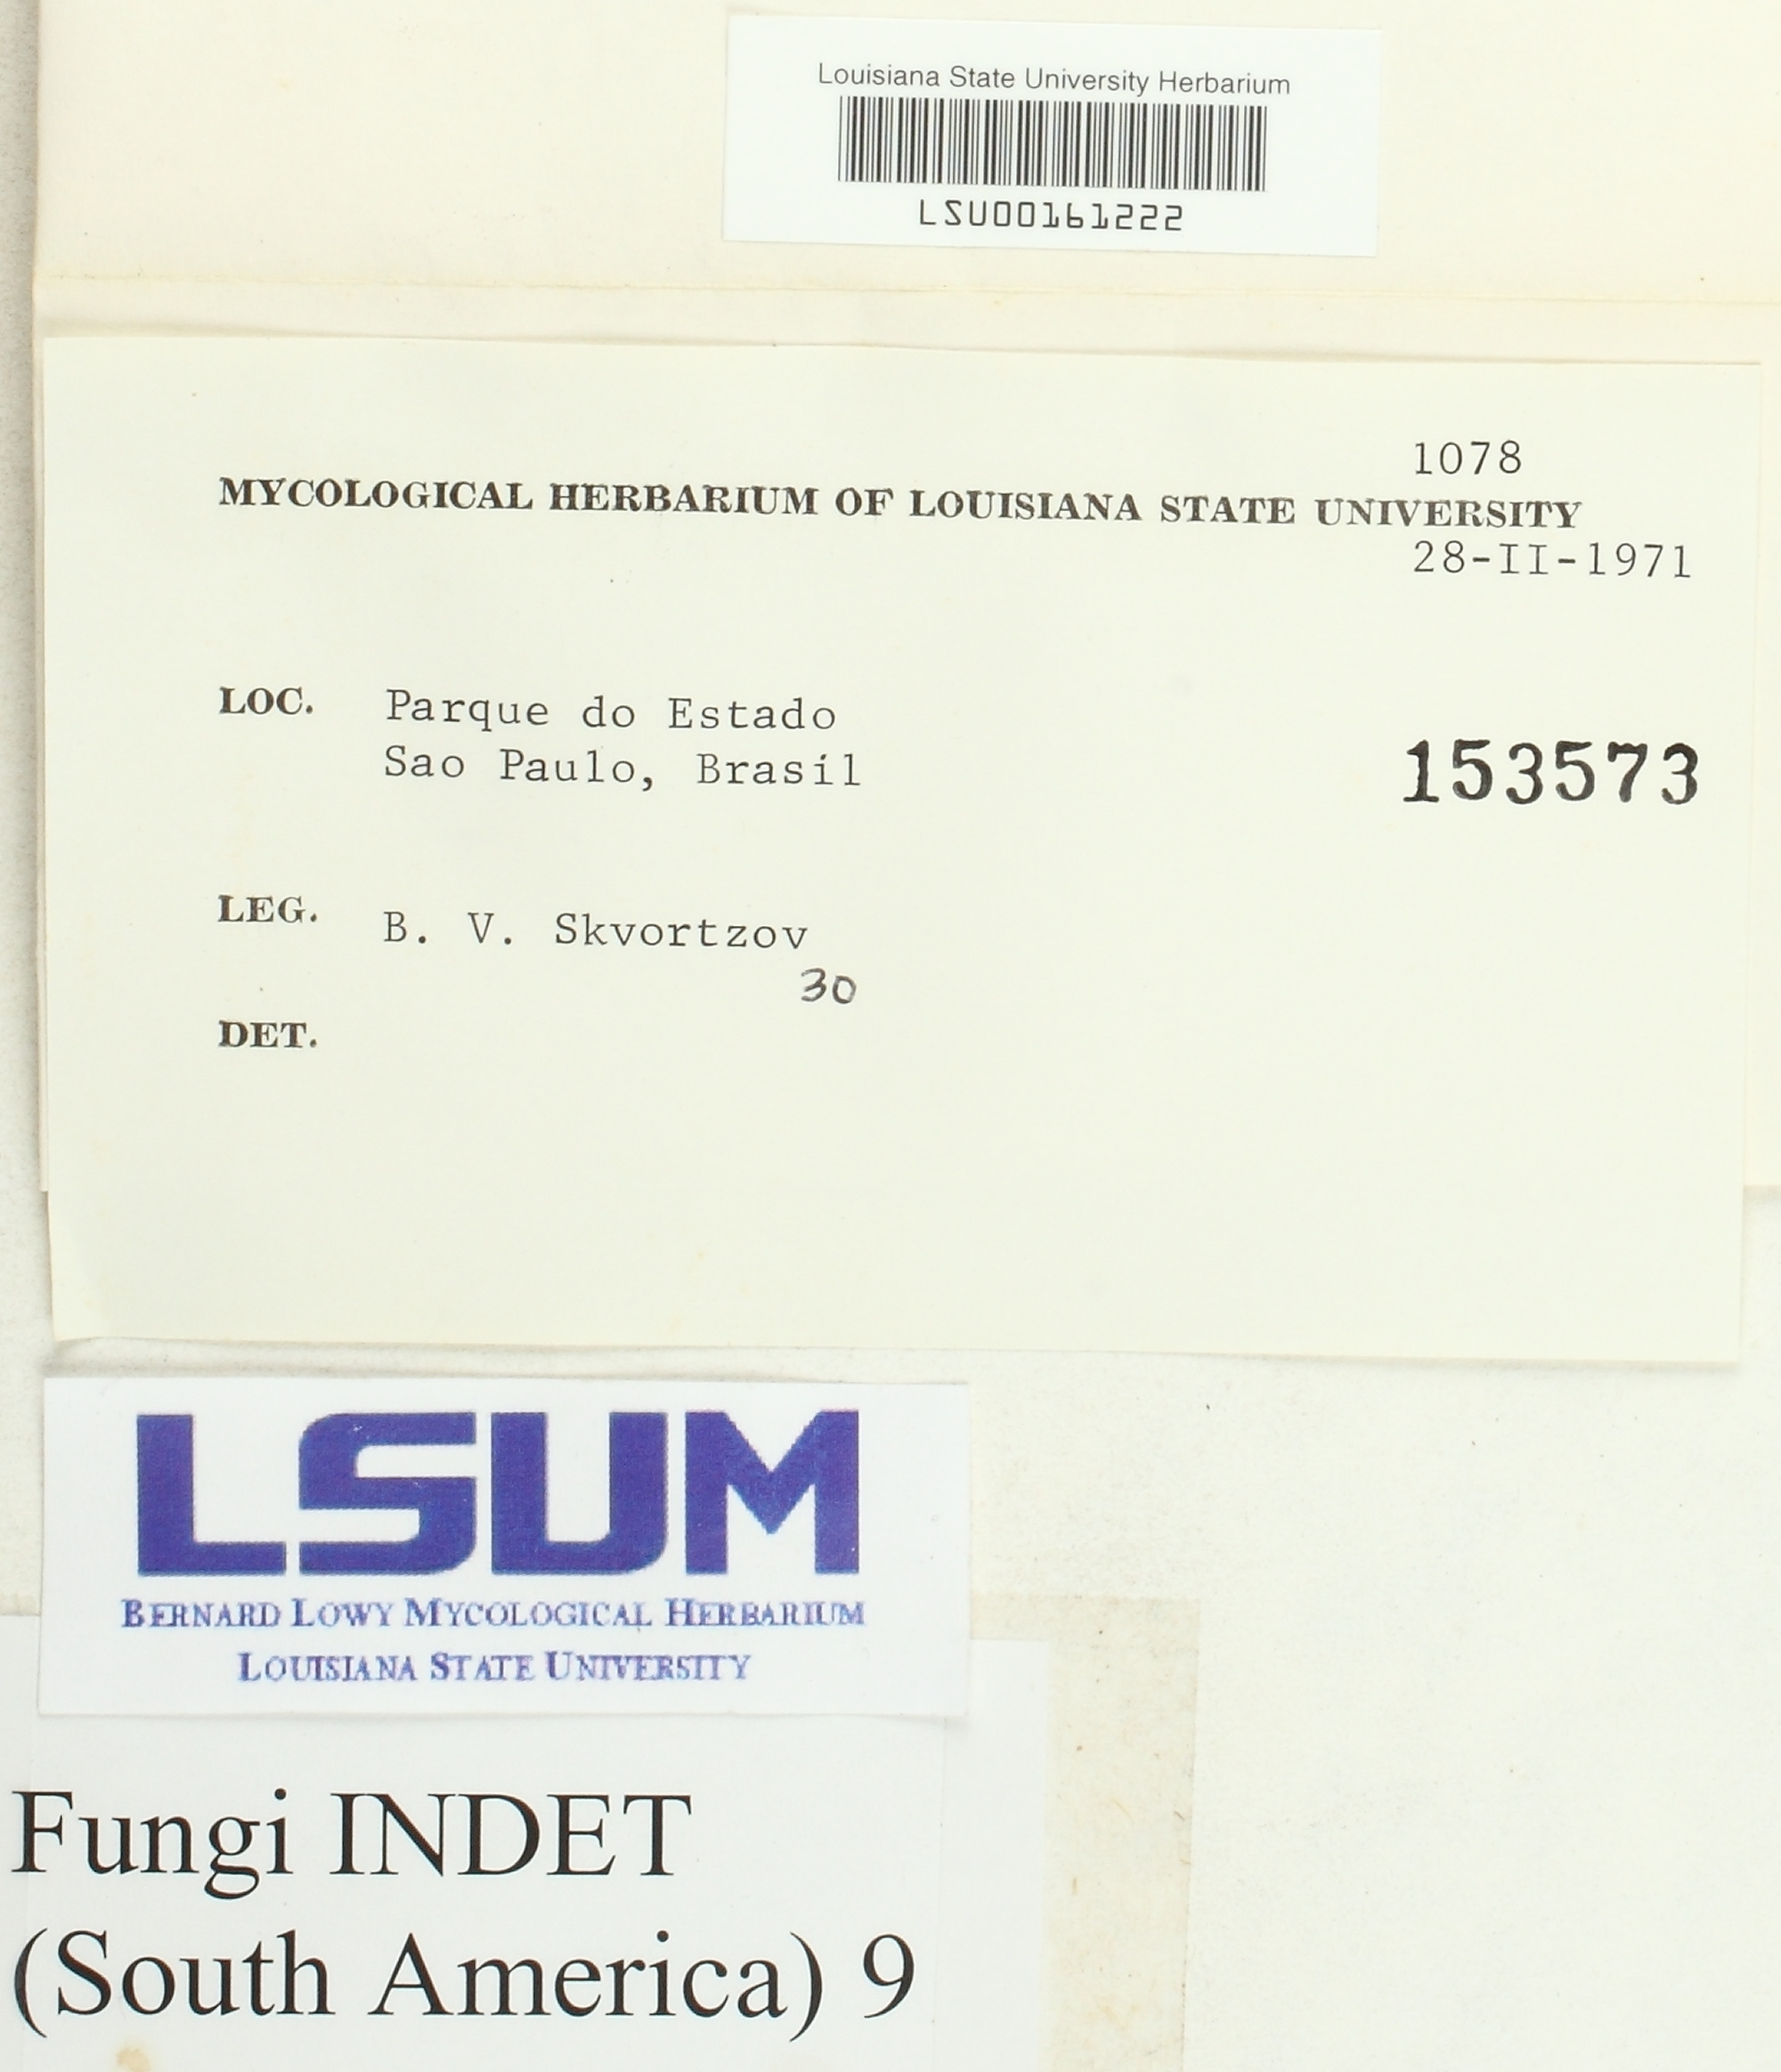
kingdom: Fungi
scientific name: Fungi
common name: Fungi
